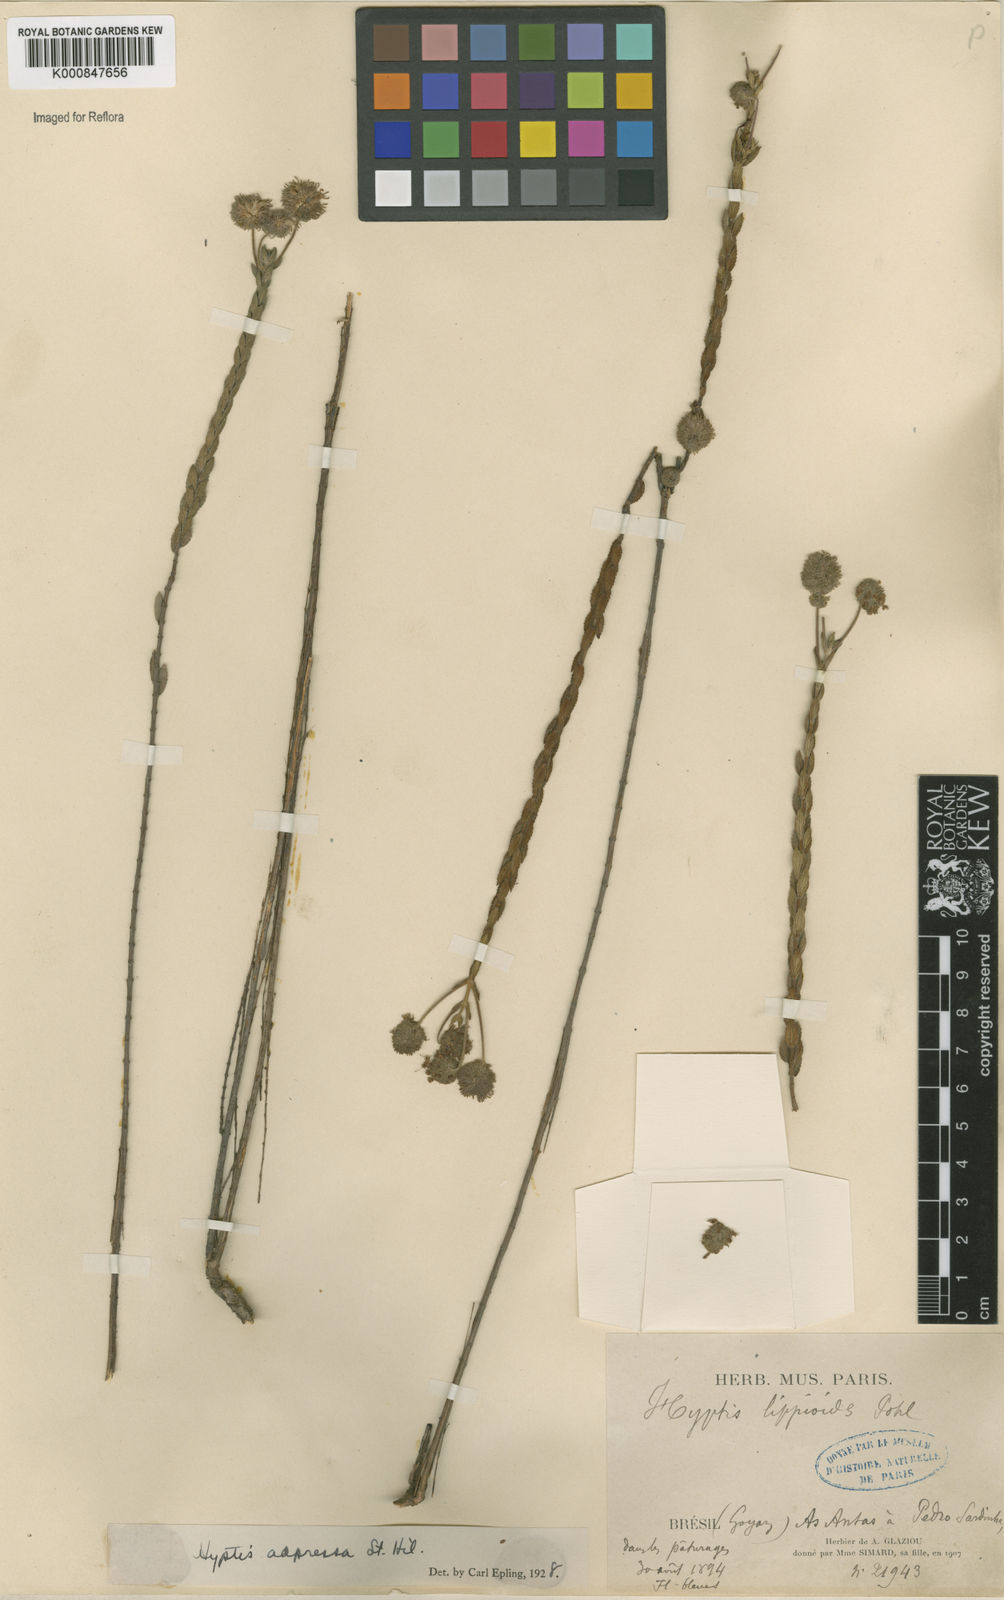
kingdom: Plantae
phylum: Tracheophyta
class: Magnoliopsida
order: Lamiales
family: Lamiaceae
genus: Cyanocephalus
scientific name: Cyanocephalus adpressus
